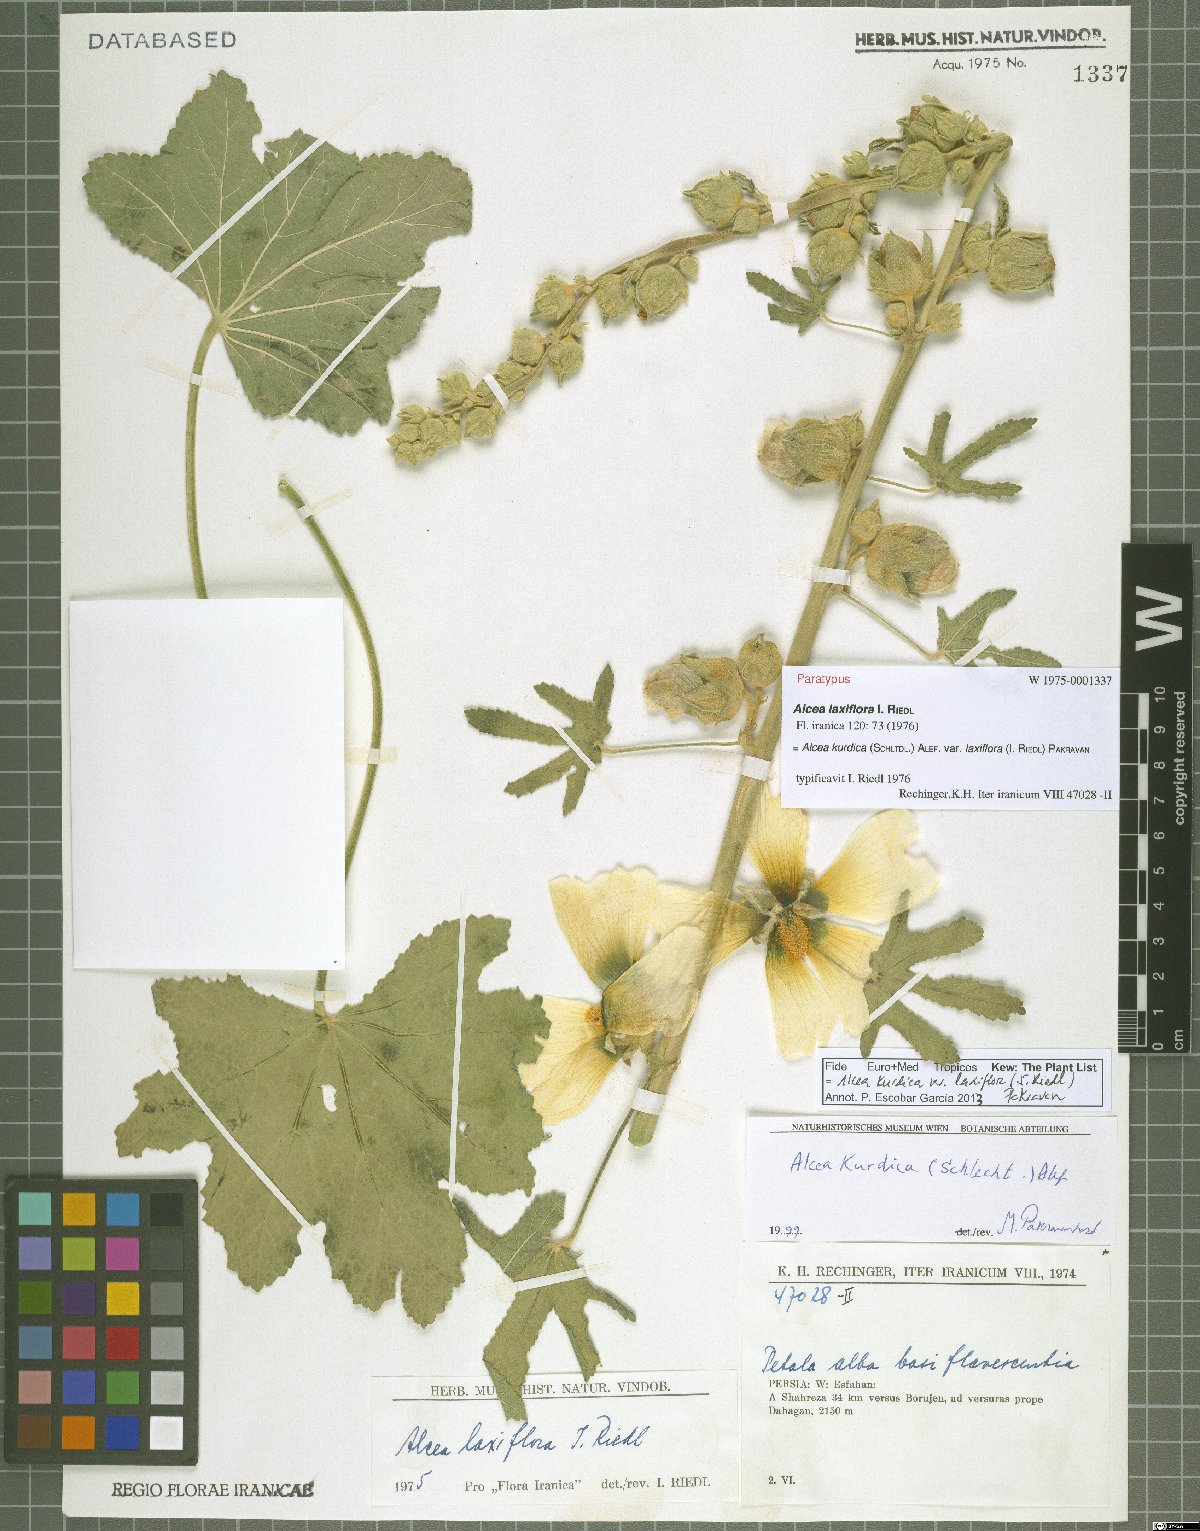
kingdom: Plantae
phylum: Tracheophyta
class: Magnoliopsida
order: Malvales
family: Malvaceae
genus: Alcea
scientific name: Alcea kurdica
